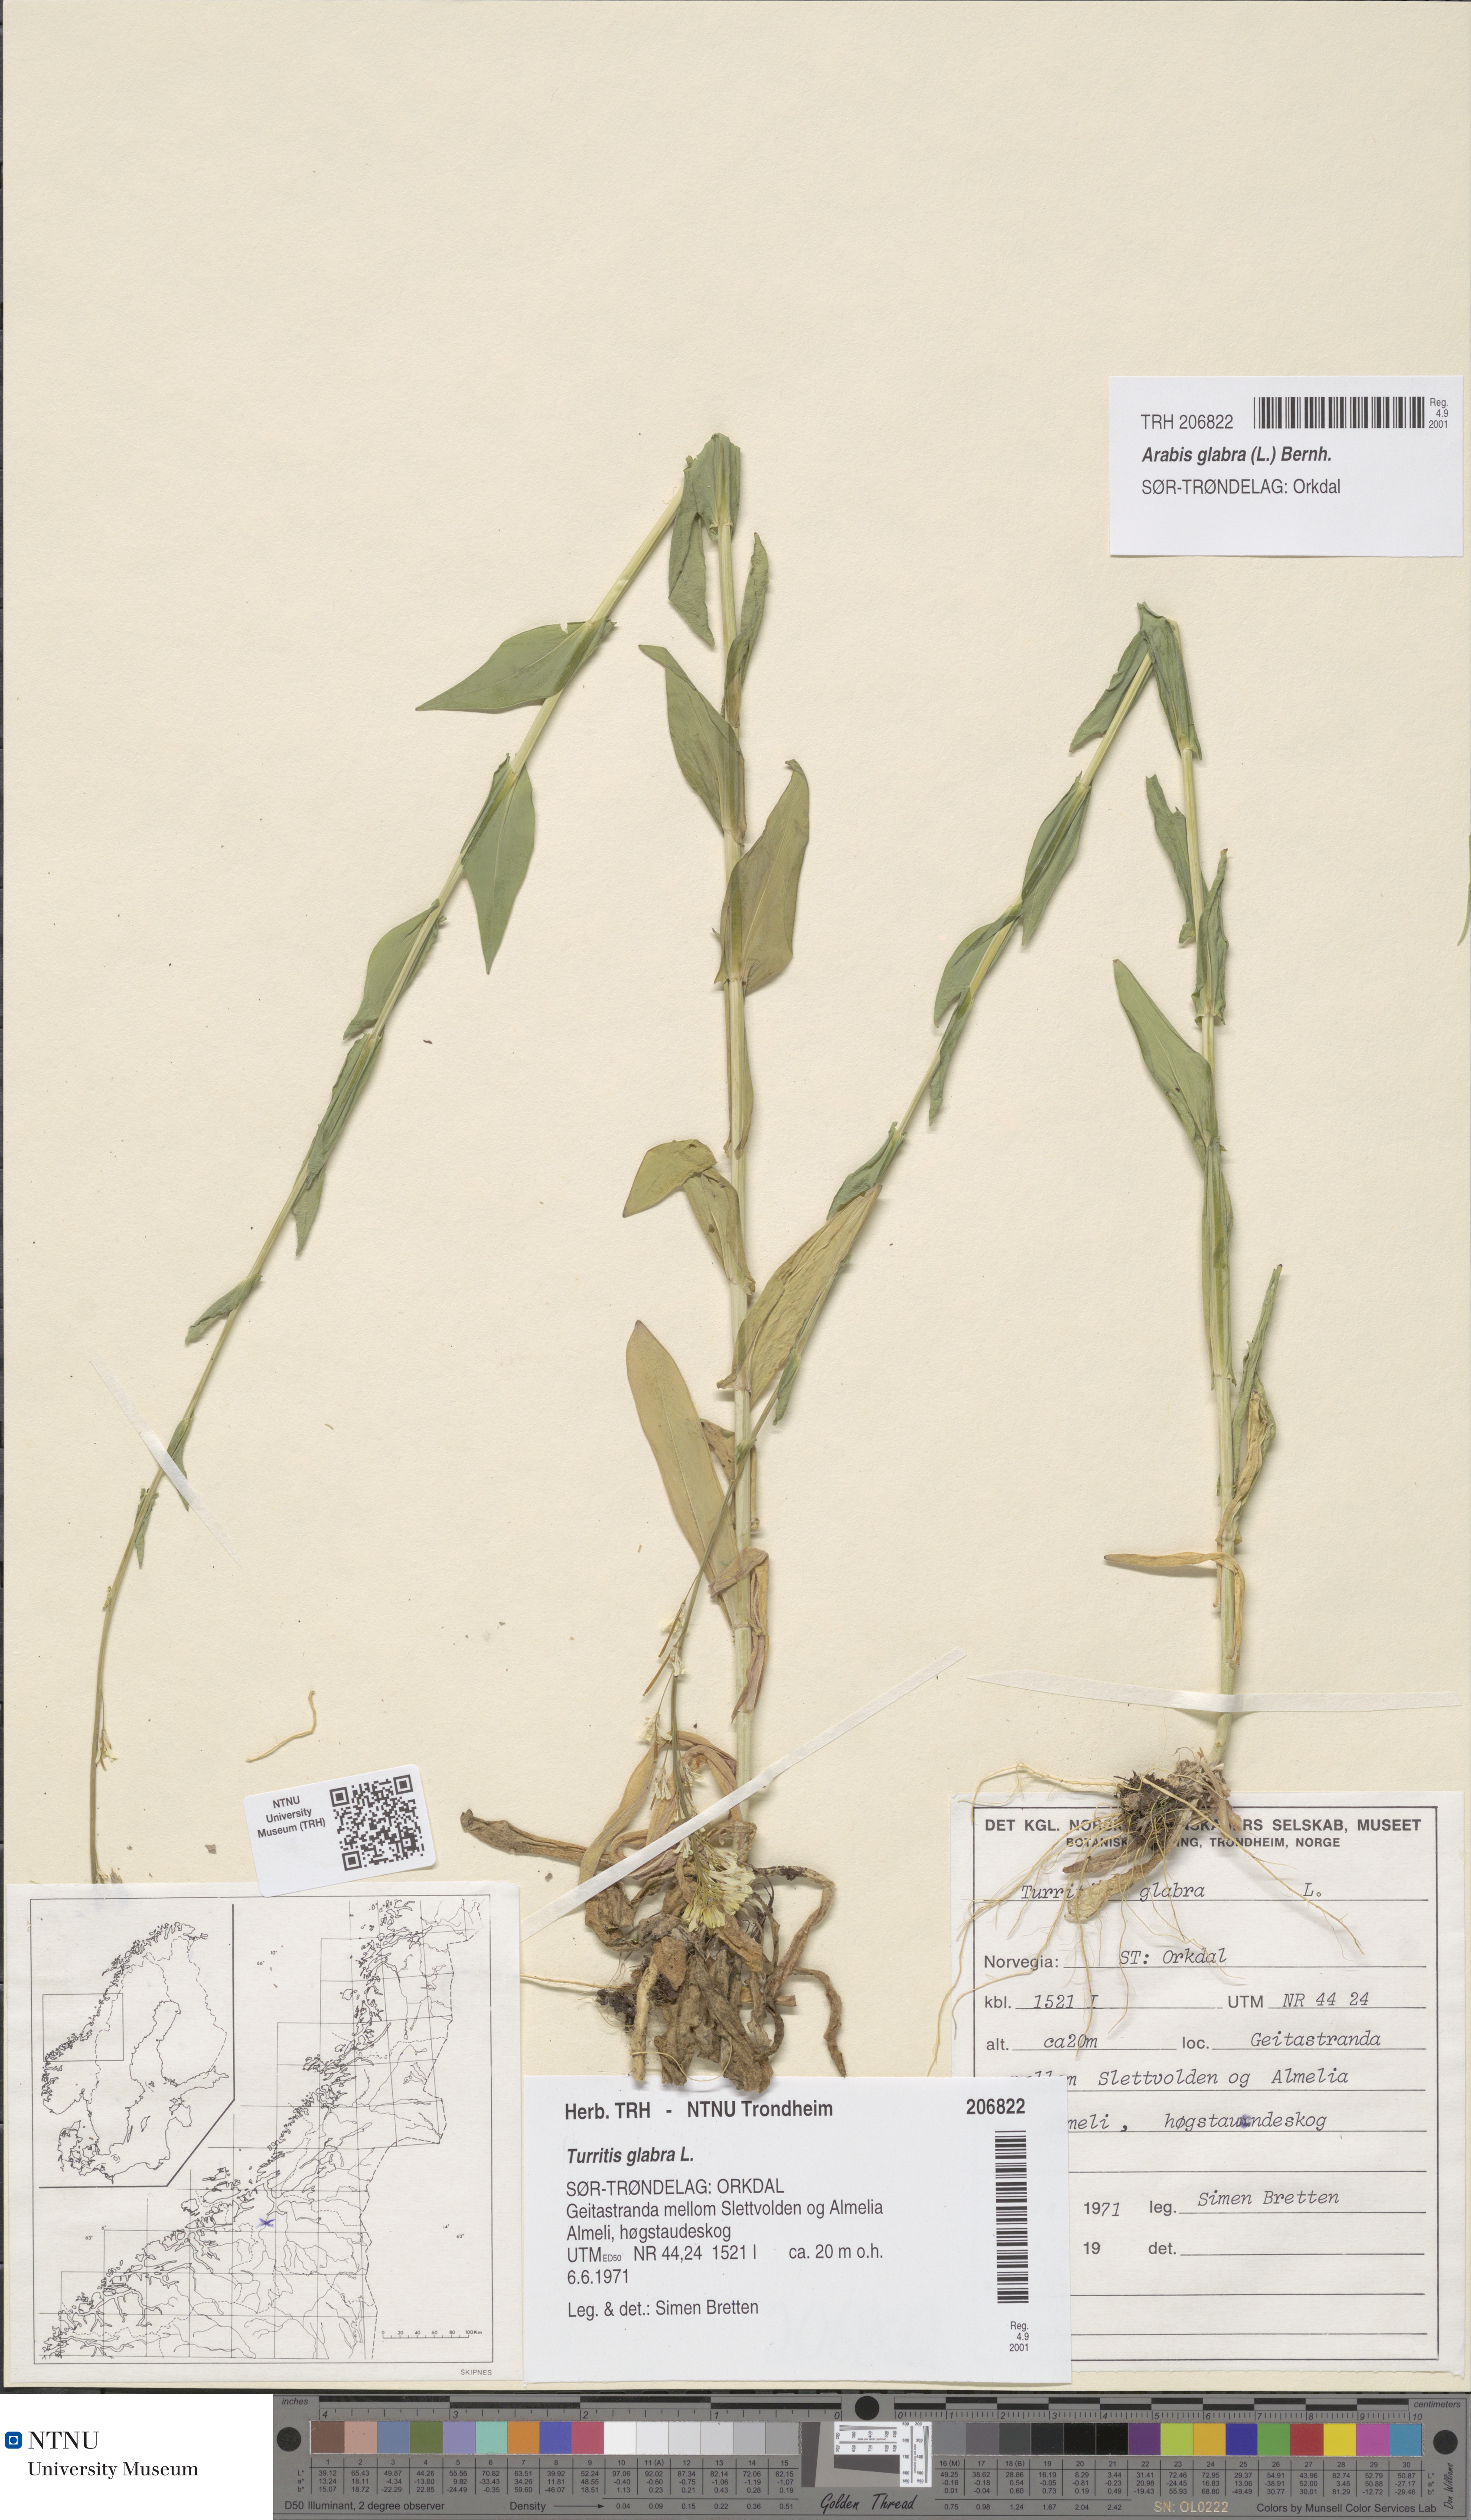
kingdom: Plantae
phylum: Tracheophyta
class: Magnoliopsida
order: Brassicales
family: Brassicaceae
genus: Turritis
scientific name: Turritis glabra
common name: Tower rockcress
